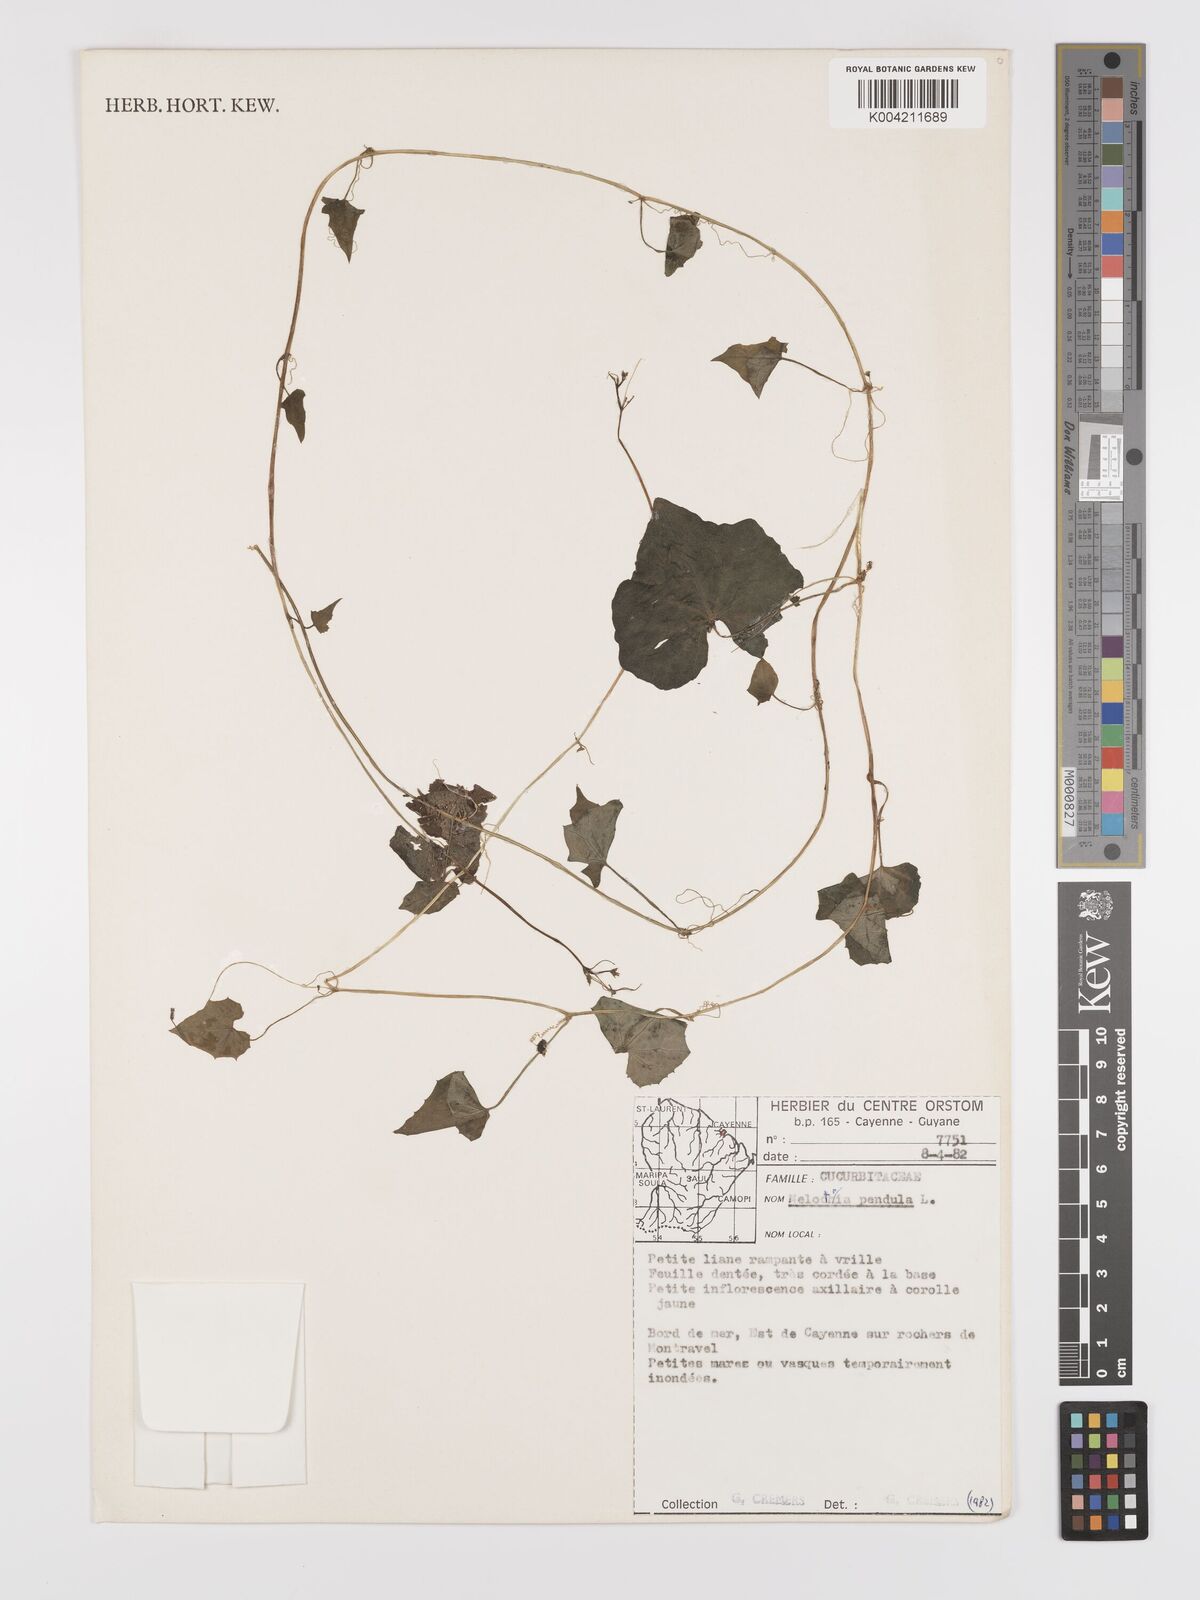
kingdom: Plantae
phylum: Tracheophyta
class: Magnoliopsida
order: Cucurbitales
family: Cucurbitaceae
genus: Melothria
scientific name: Melothria pendula
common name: Creeping-cucumber
